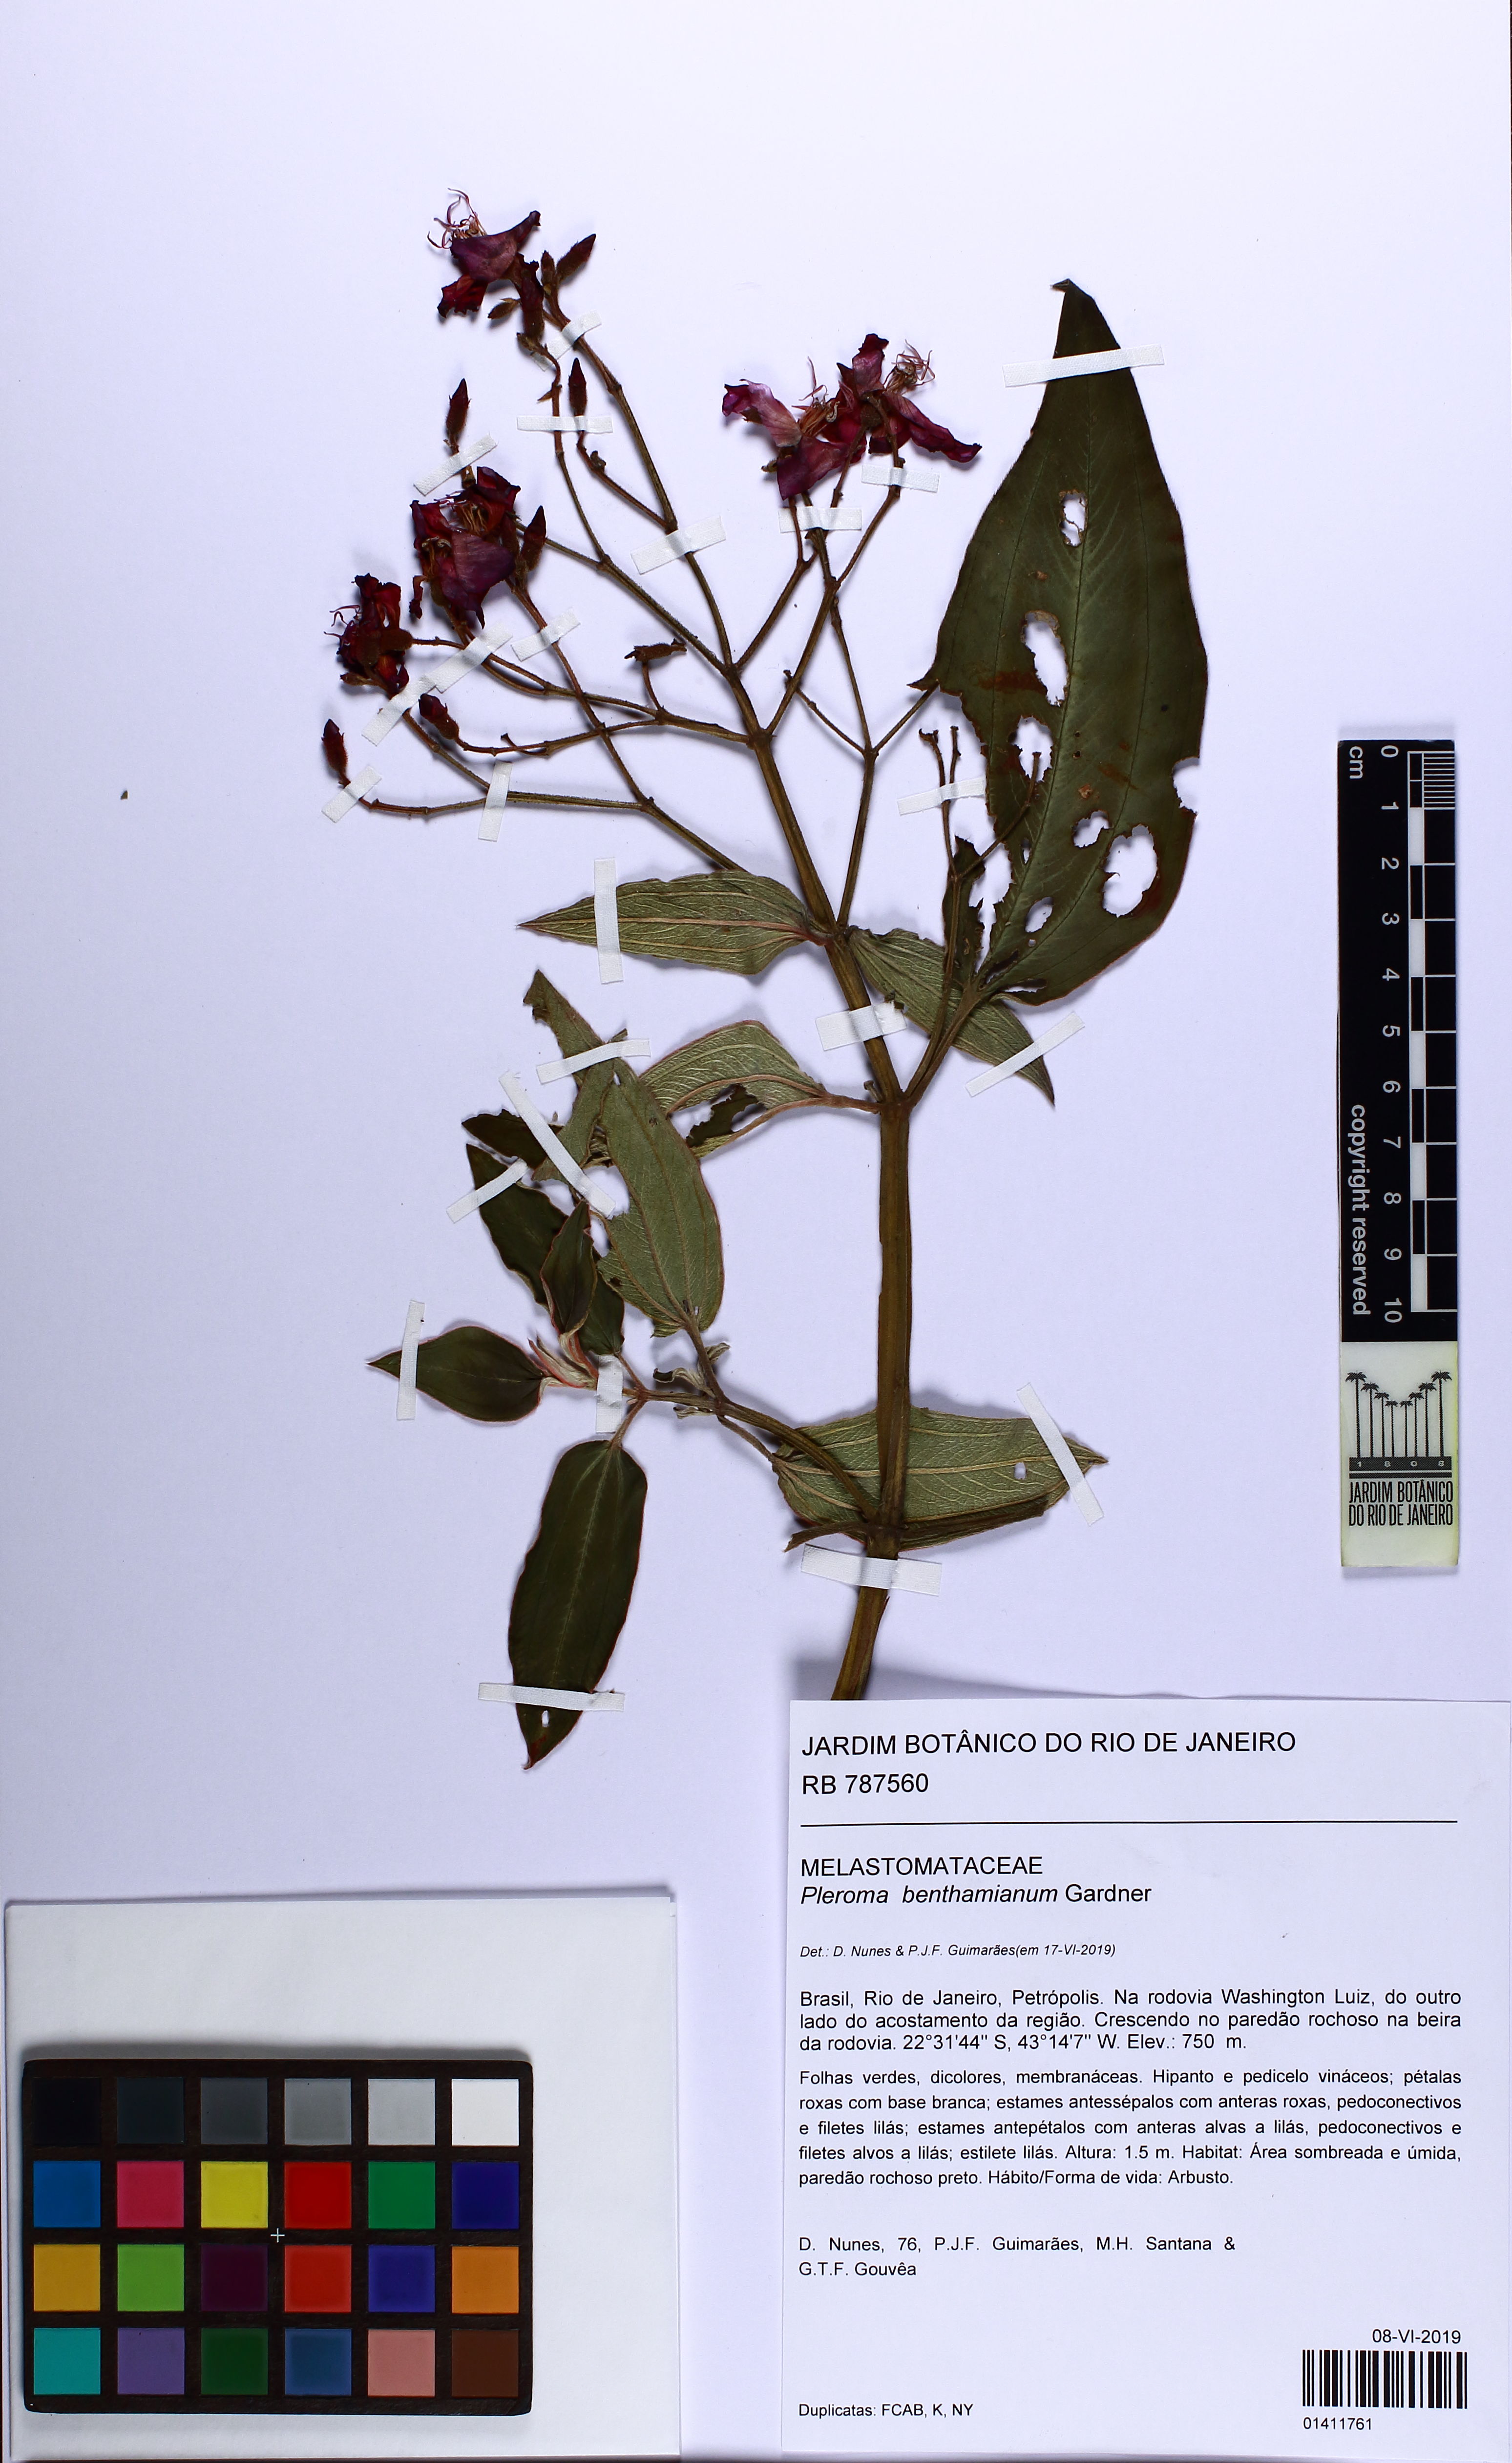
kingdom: Plantae
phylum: Tracheophyta
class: Magnoliopsida
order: Myrtales
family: Melastomataceae
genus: Pleroma
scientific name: Pleroma benthamianum
